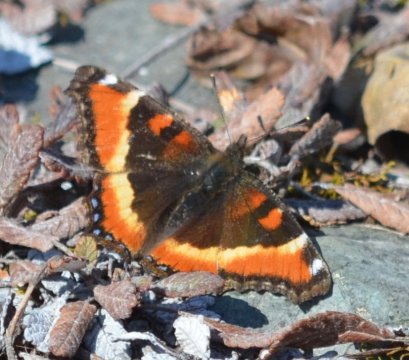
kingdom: Animalia
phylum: Arthropoda
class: Insecta
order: Lepidoptera
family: Nymphalidae
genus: Aglais
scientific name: Aglais milberti
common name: Milbert's Tortoiseshell
